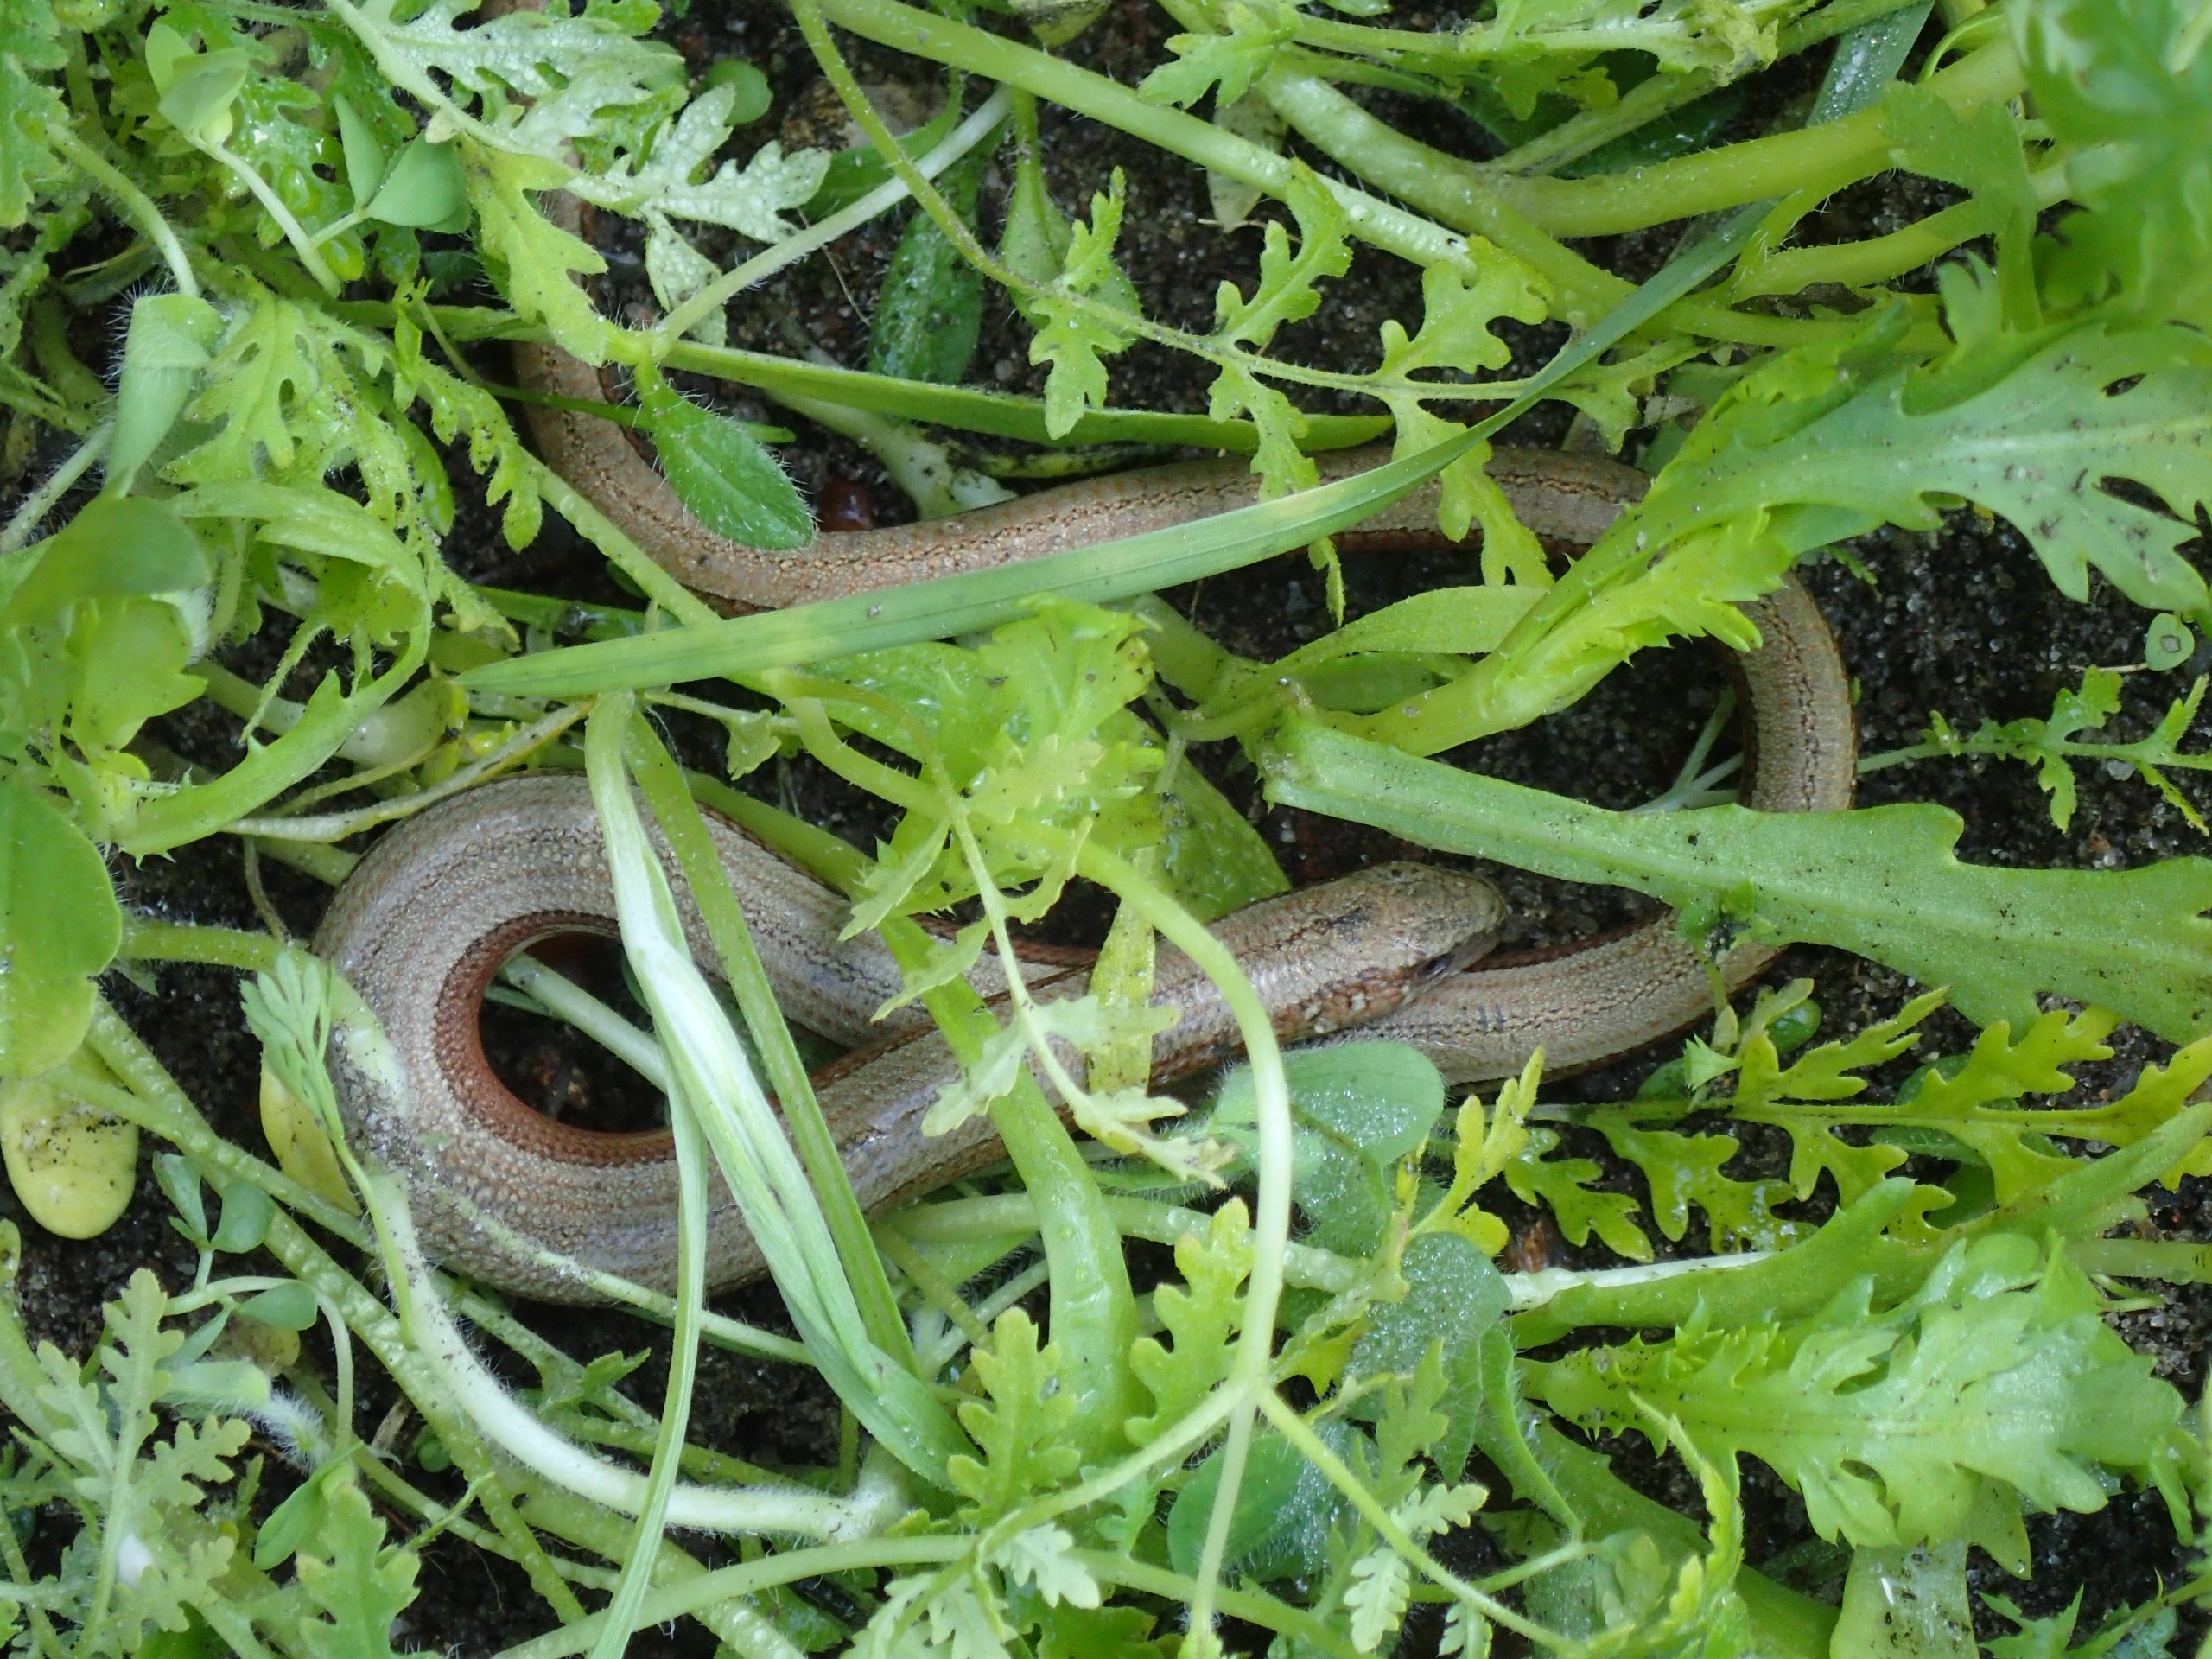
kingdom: Animalia
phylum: Chordata
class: Squamata
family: Anguidae
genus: Anguis
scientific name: Anguis fragilis
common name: Stålorm
